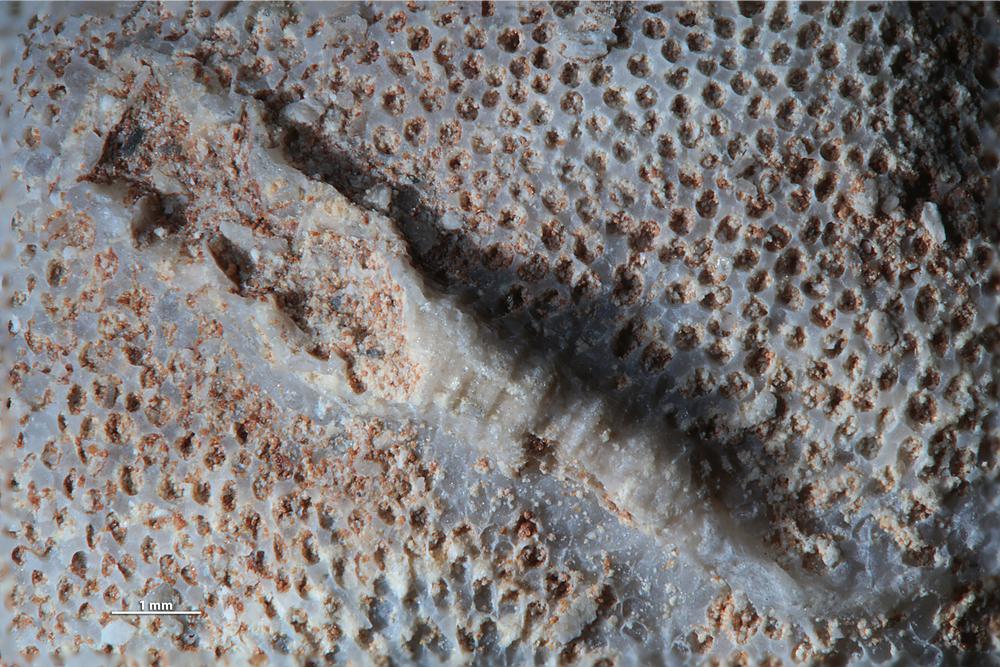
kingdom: Animalia
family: Cornulitidae
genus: Cornulites
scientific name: Cornulites
